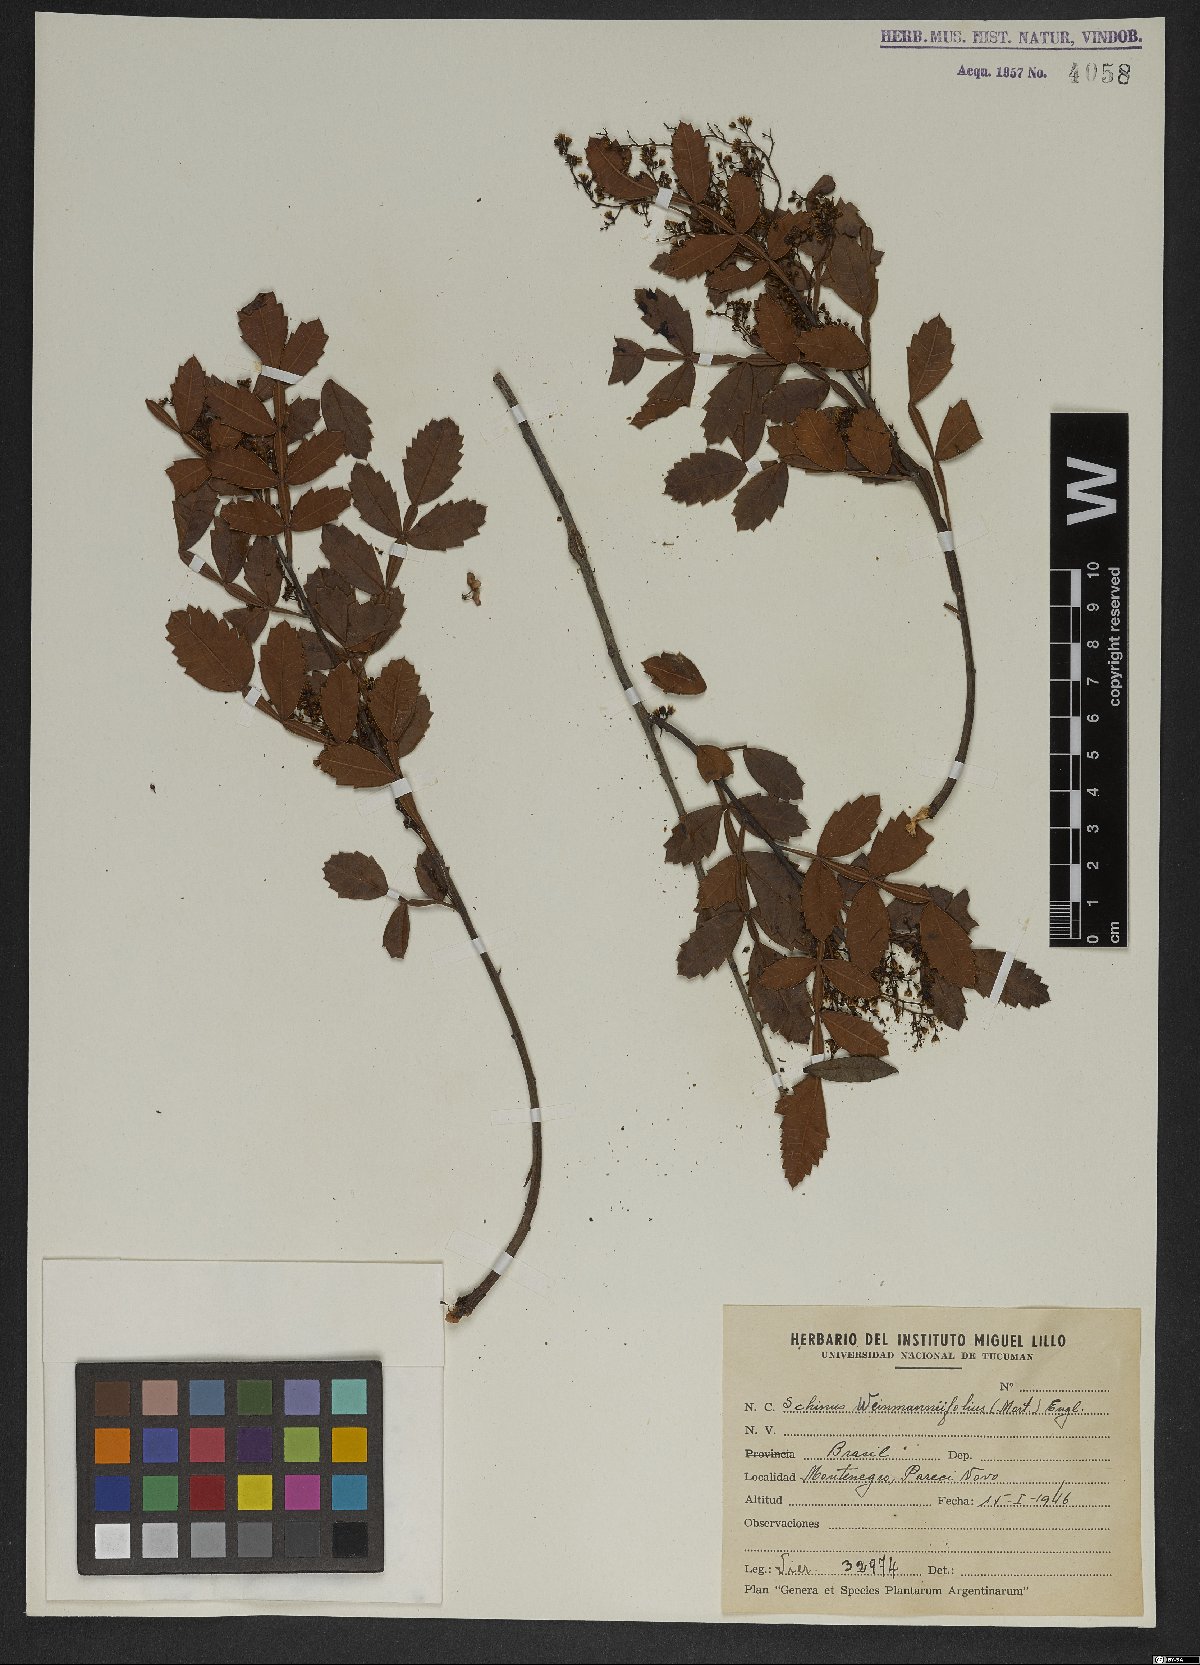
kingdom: Plantae
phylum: Tracheophyta
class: Magnoliopsida
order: Sapindales
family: Anacardiaceae
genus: Schinus
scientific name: Schinus weinmanniifolia
